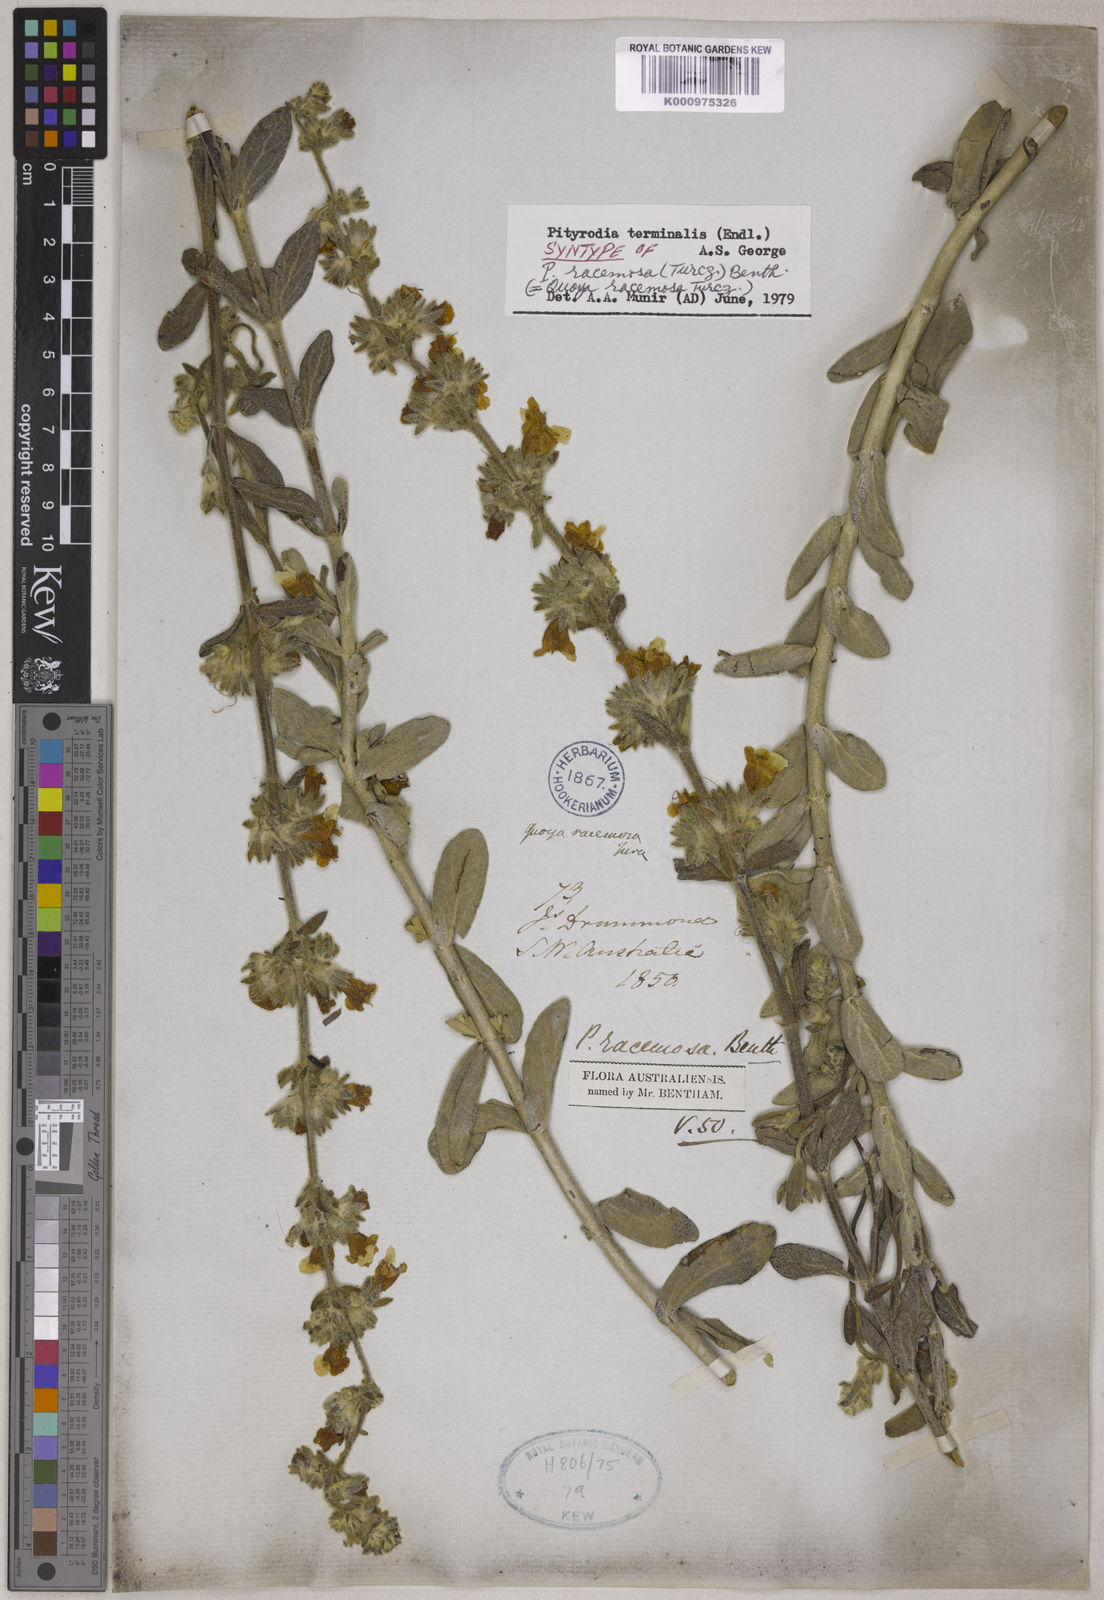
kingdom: Plantae
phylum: Tracheophyta
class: Magnoliopsida
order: Lamiales
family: Lamiaceae
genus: Dasymalla
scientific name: Dasymalla terminalis
